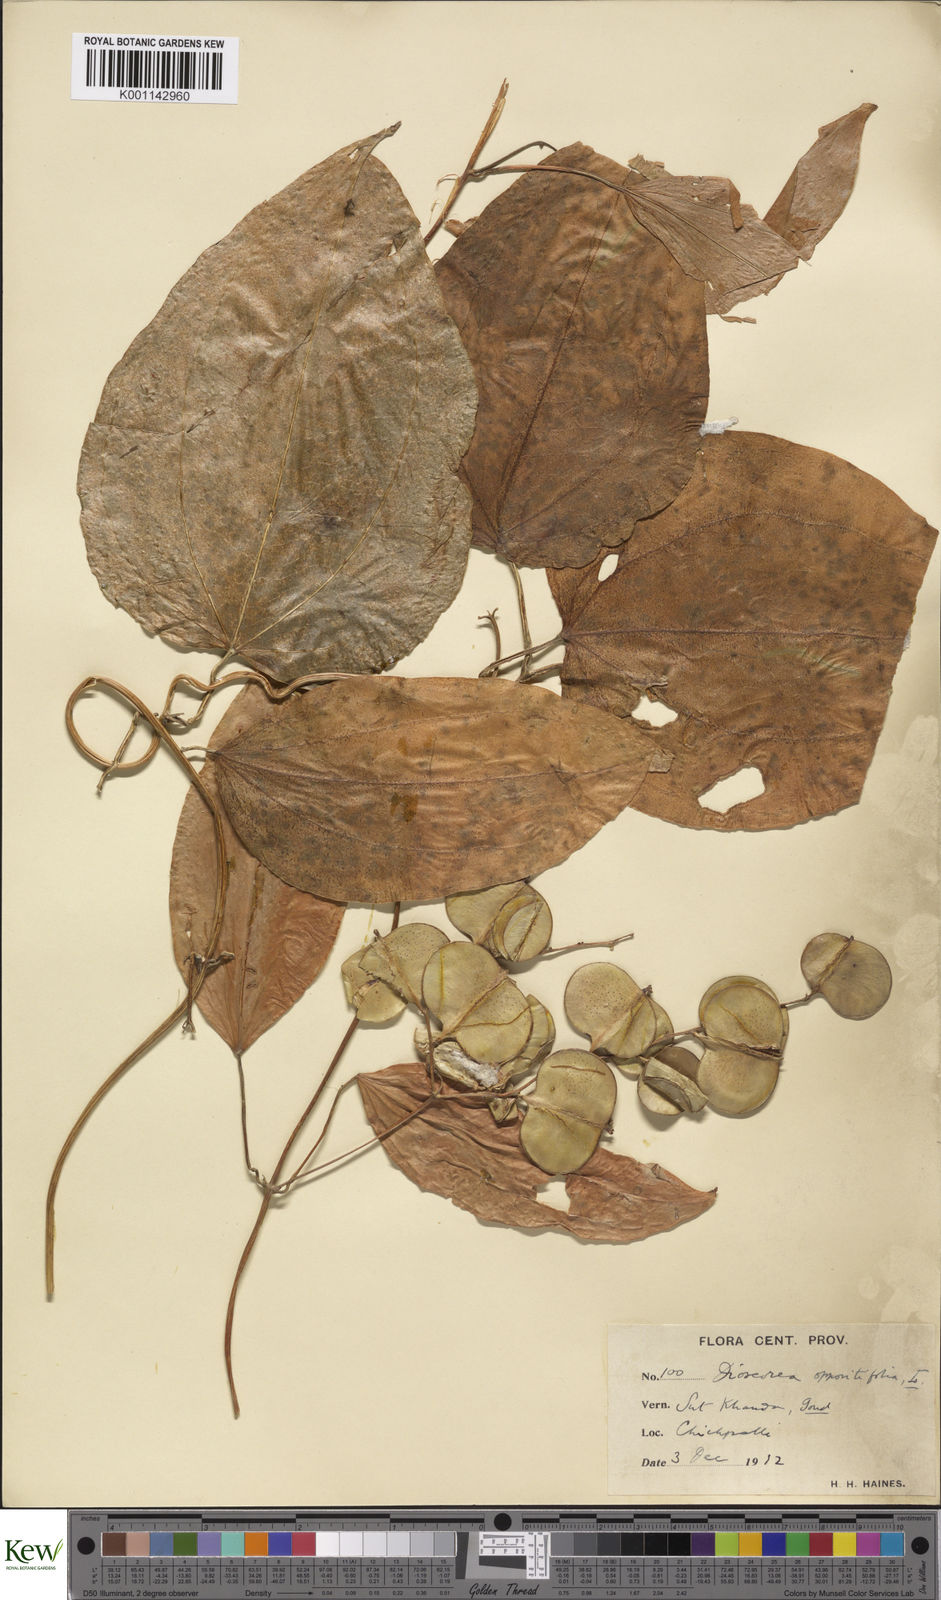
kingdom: Plantae
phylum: Tracheophyta
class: Liliopsida
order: Dioscoreales
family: Dioscoreaceae
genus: Dioscorea
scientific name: Dioscorea oppositifolia
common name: Chinese yam
